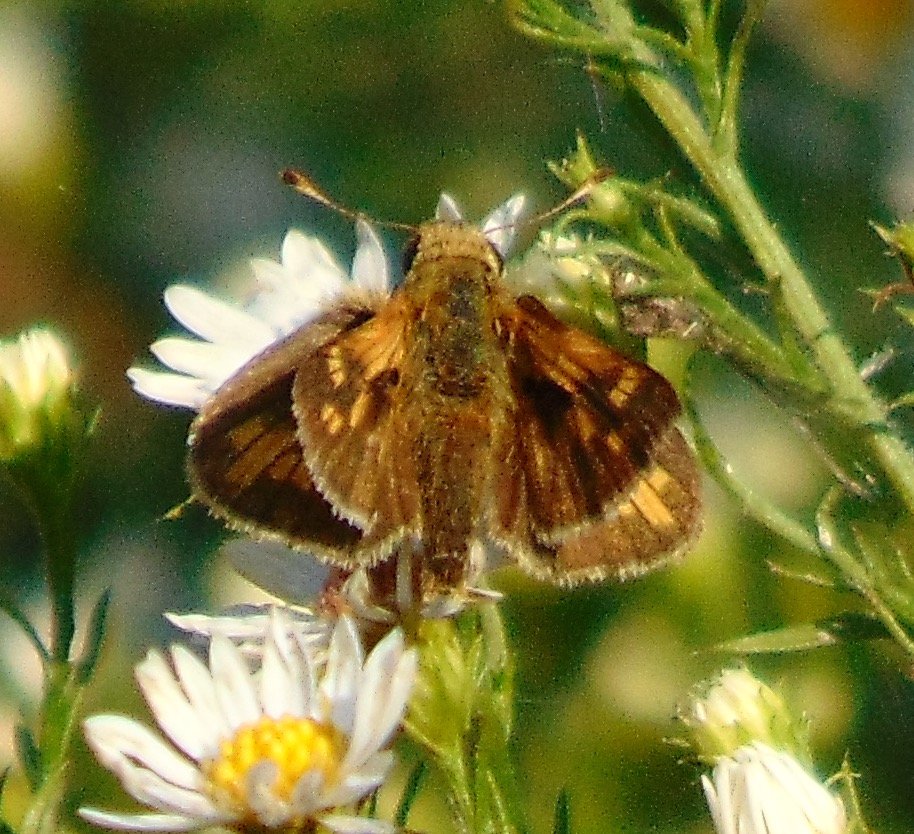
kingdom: Animalia
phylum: Arthropoda
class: Insecta
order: Lepidoptera
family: Hesperiidae
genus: Polites
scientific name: Polites coras
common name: Peck's Skipper
